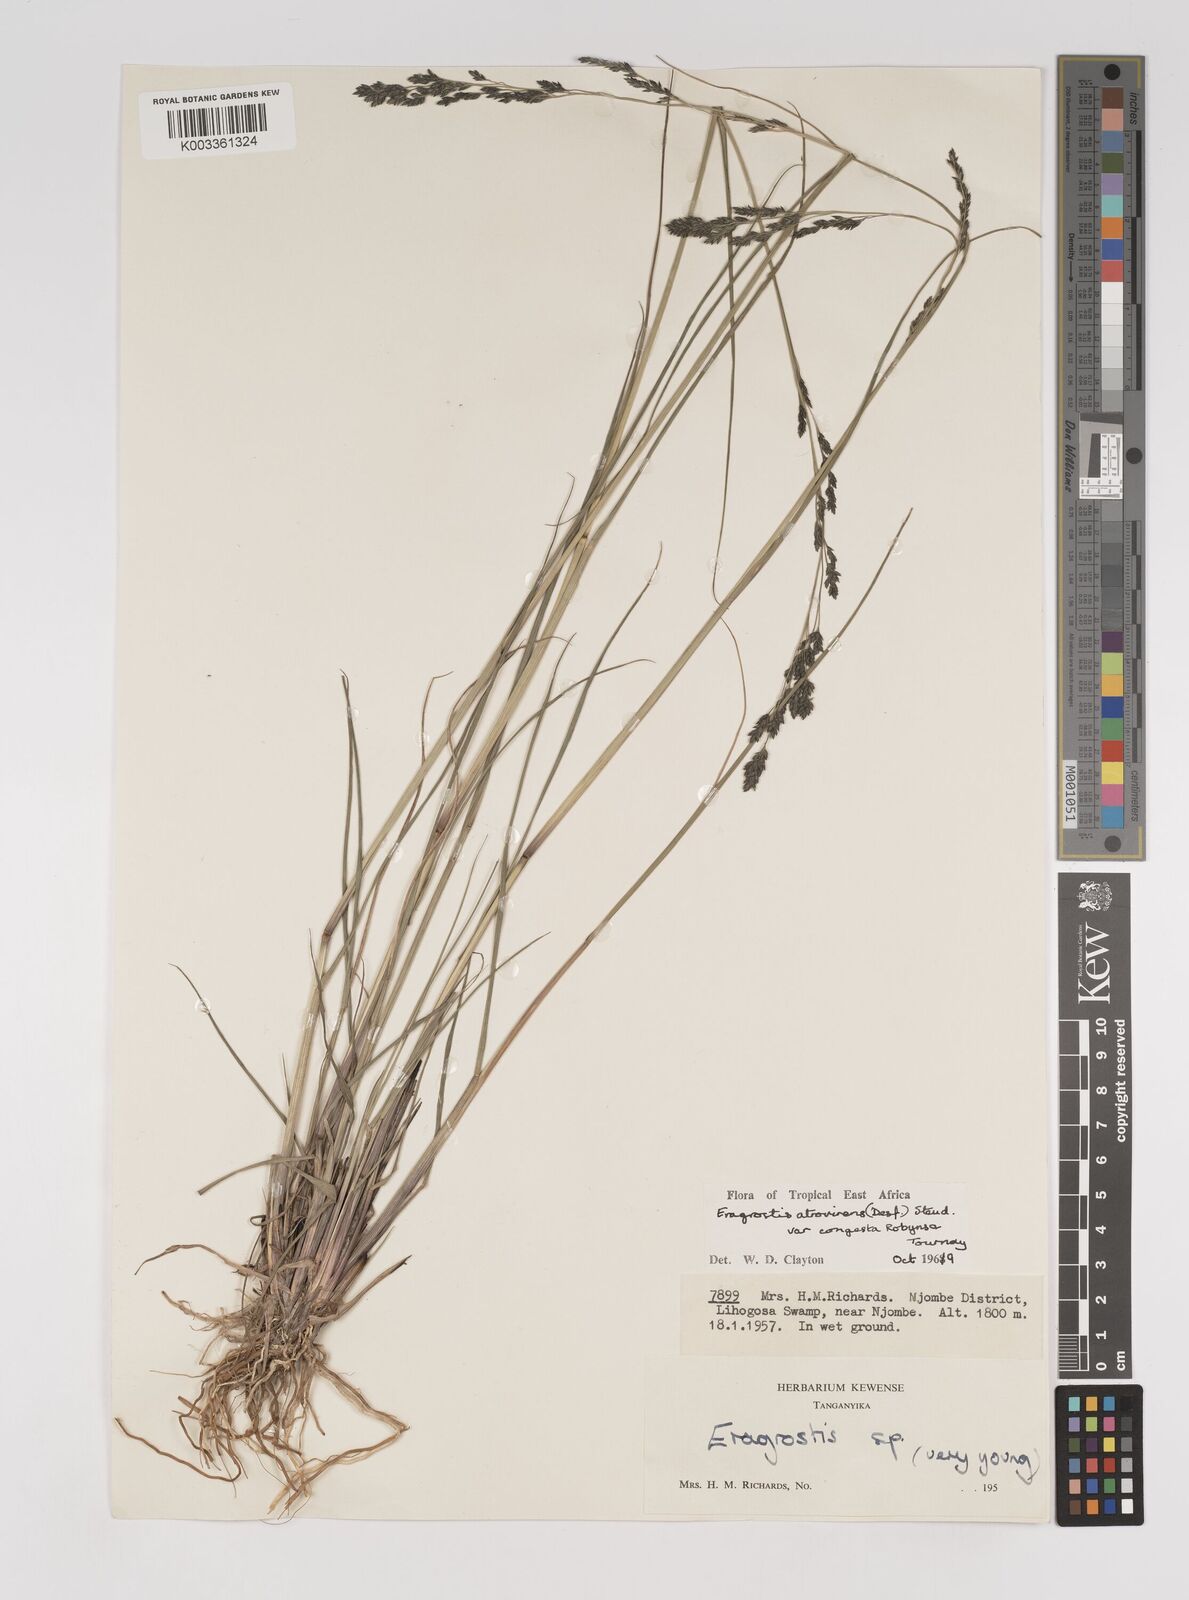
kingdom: Plantae
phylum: Tracheophyta
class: Liliopsida
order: Poales
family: Poaceae
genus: Eragrostis
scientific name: Eragrostis botryodes
